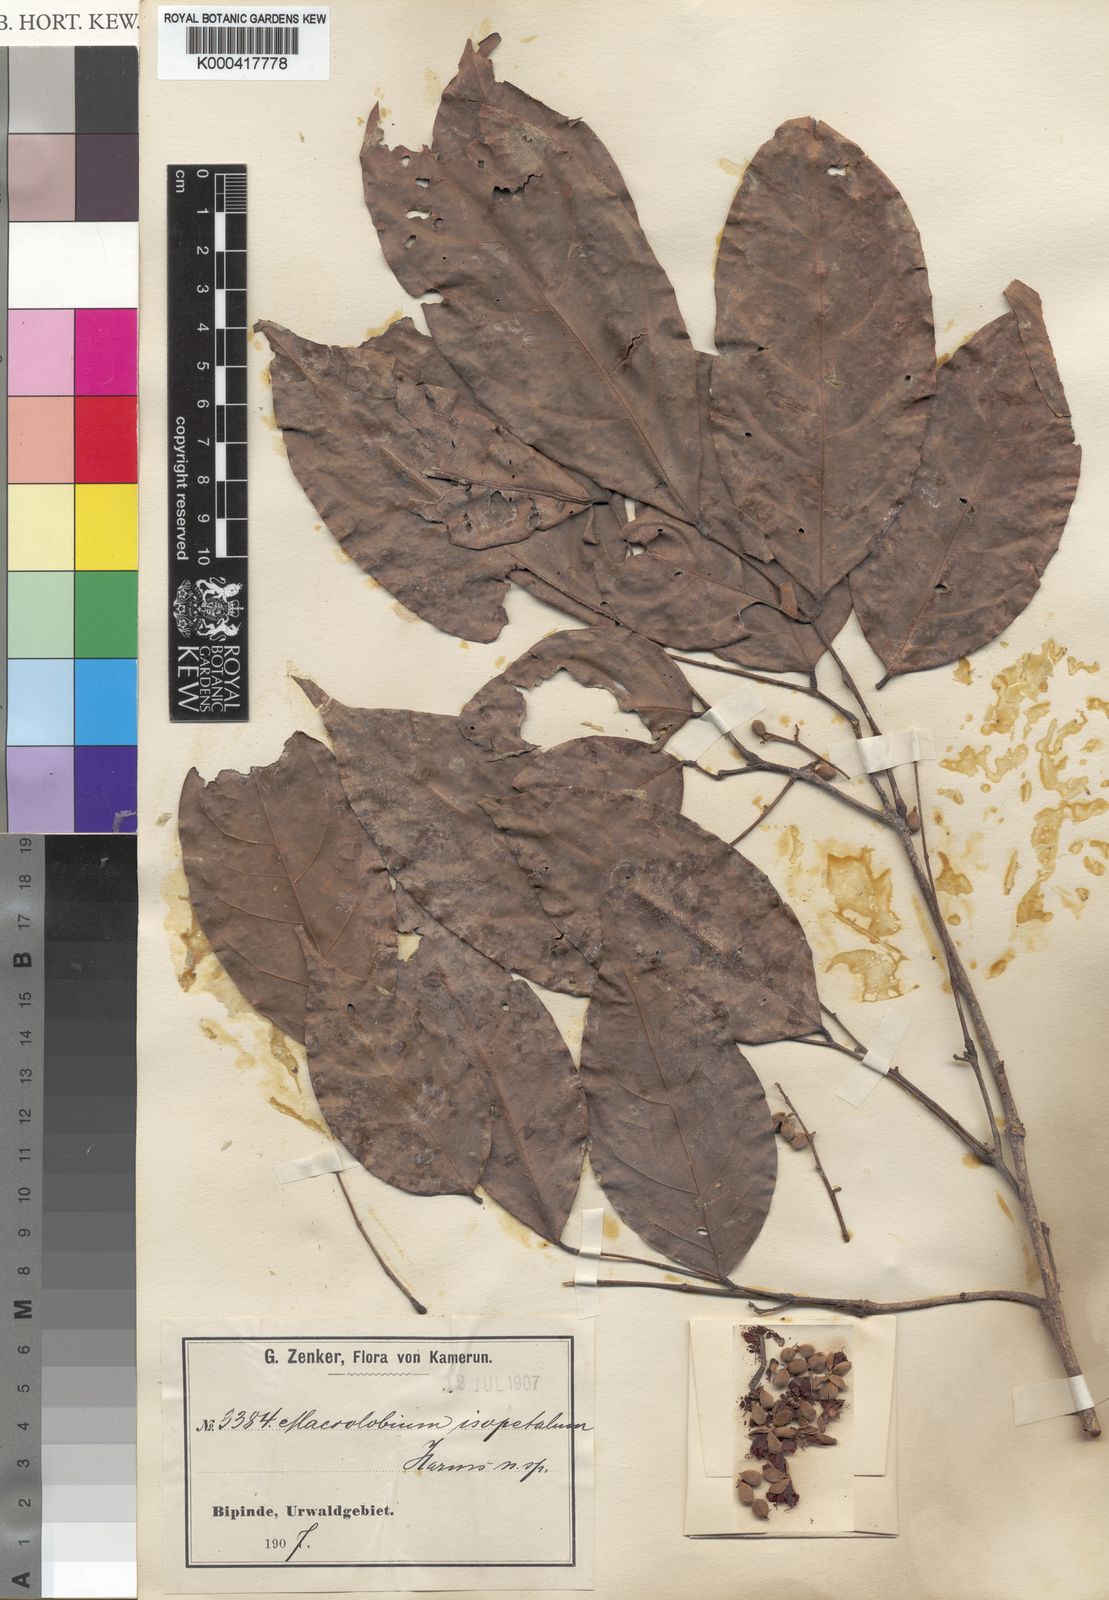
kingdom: Plantae
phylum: Tracheophyta
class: Magnoliopsida
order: Fabales
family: Fabaceae
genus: Englerodendron
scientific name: Englerodendron isopetalum
